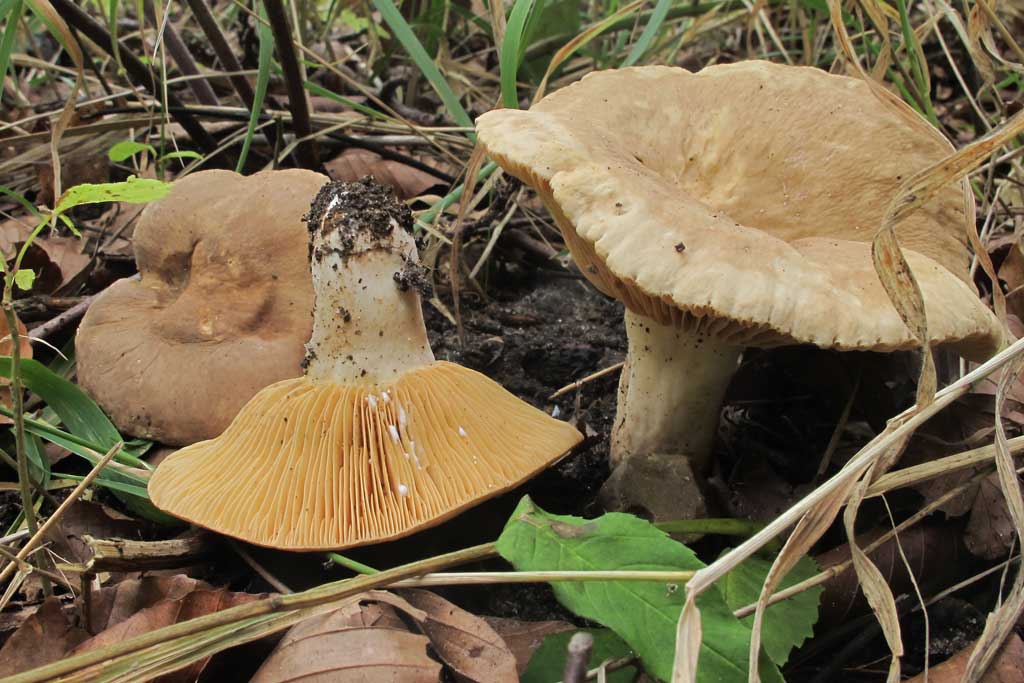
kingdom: Fungi
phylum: Basidiomycota
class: Agaricomycetes
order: Russulales
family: Russulaceae
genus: Lactarius
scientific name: Lactarius ruginosus
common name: gråbrun mælkehat
